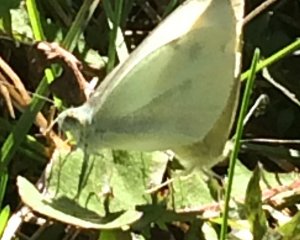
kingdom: Animalia
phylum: Arthropoda
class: Insecta
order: Lepidoptera
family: Pieridae
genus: Pieris
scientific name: Pieris rapae
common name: Cabbage White
